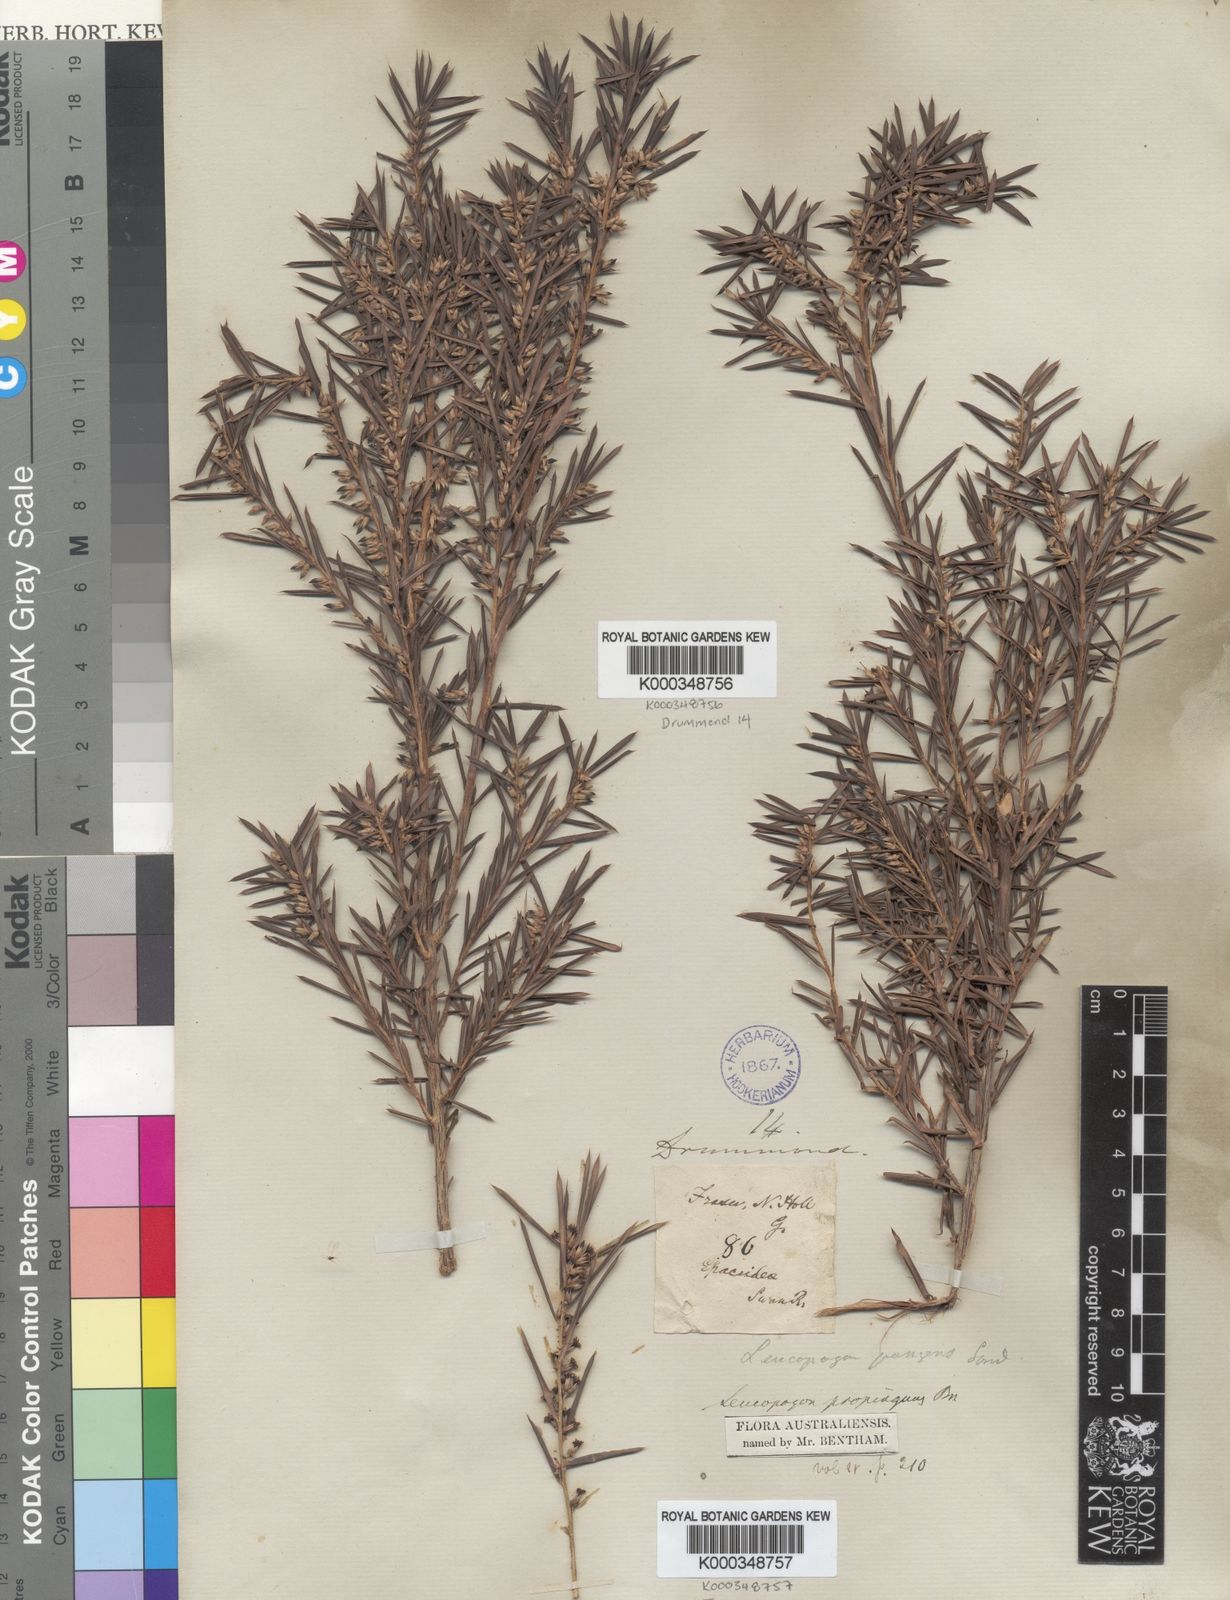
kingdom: Plantae
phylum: Tracheophyta
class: Magnoliopsida
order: Ericales
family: Ericaceae
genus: Styphelia
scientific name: Styphelia propinqua
